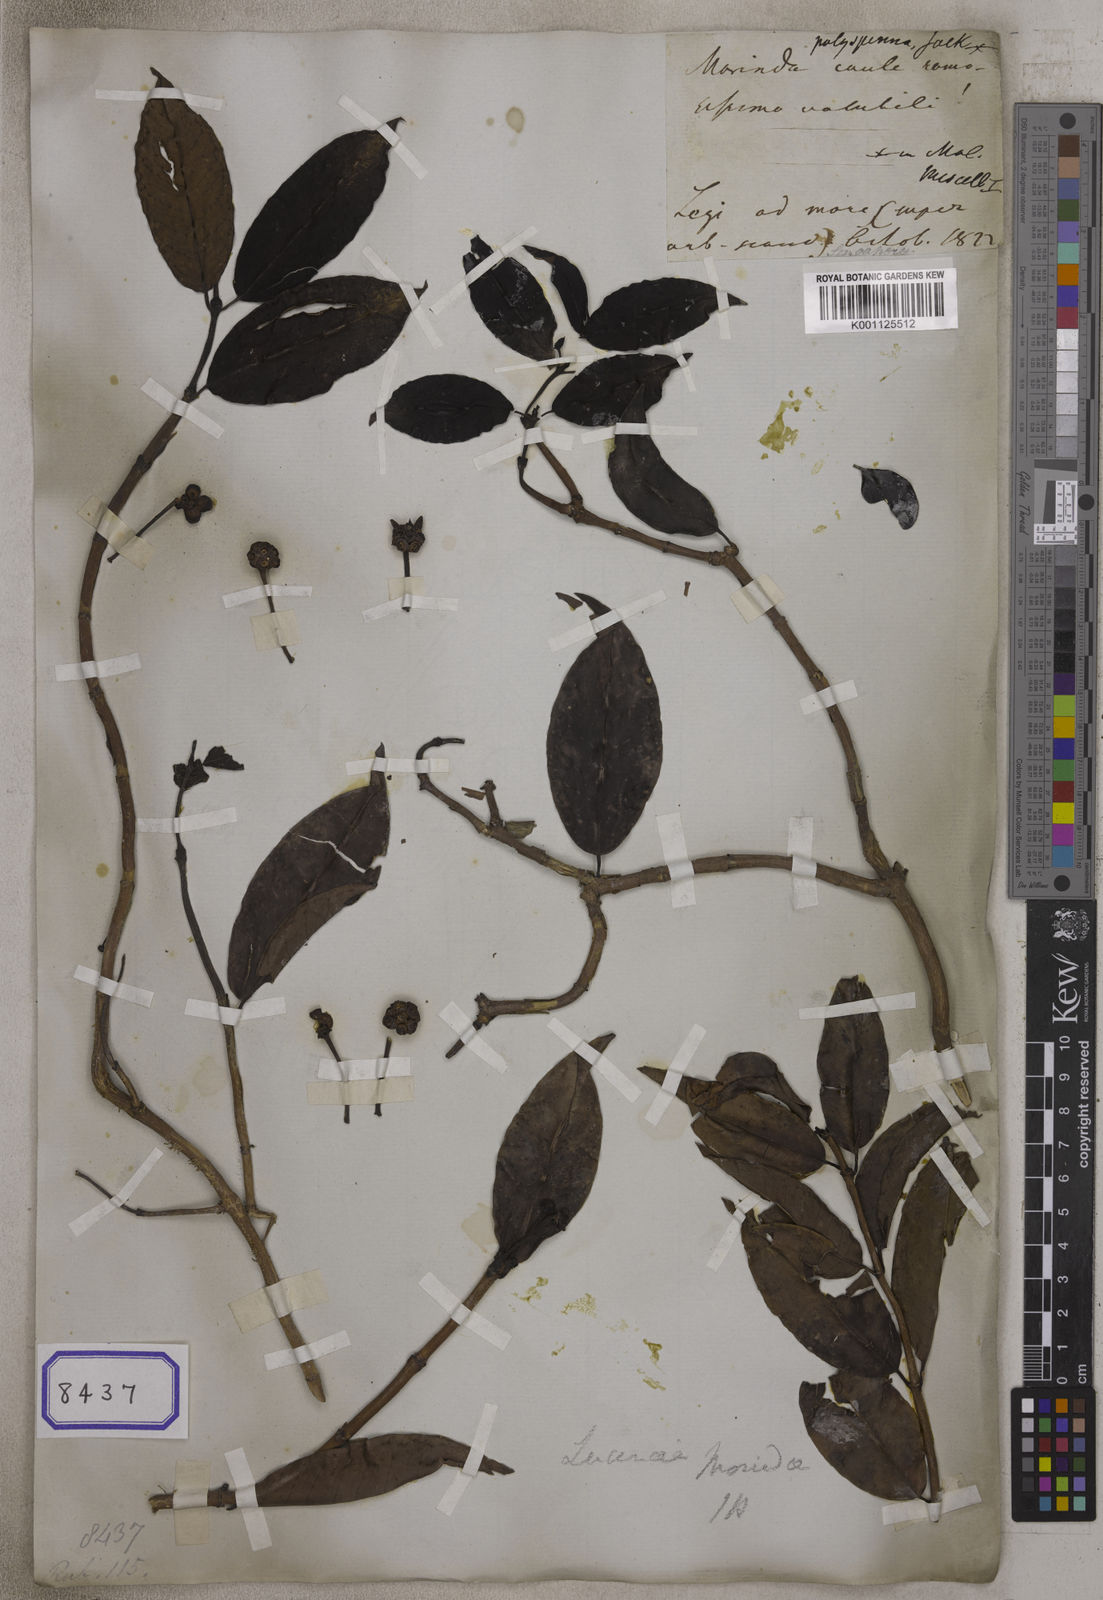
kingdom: Plantae
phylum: Tracheophyta
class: Magnoliopsida
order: Gentianales
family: Rubiaceae
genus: Schradera
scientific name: Schradera polysperma
